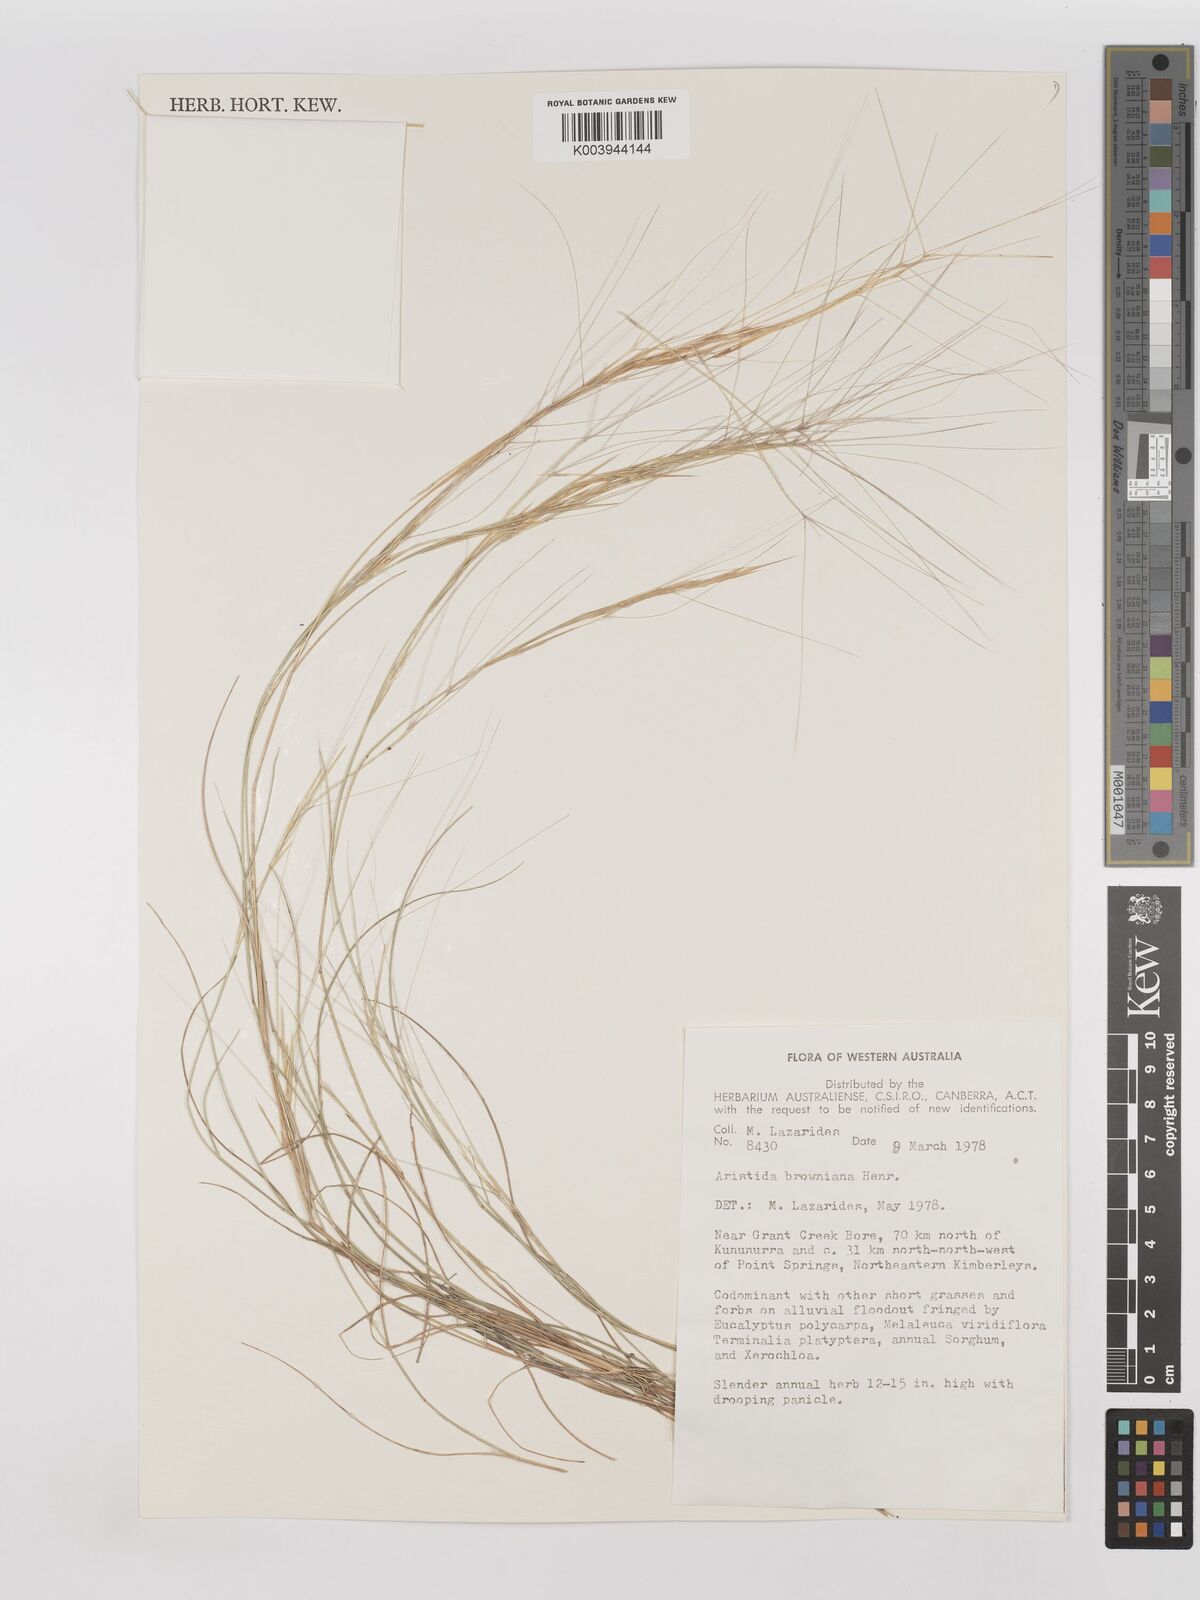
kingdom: Plantae
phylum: Tracheophyta
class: Liliopsida
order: Poales
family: Poaceae
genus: Aristida
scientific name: Aristida holathera
